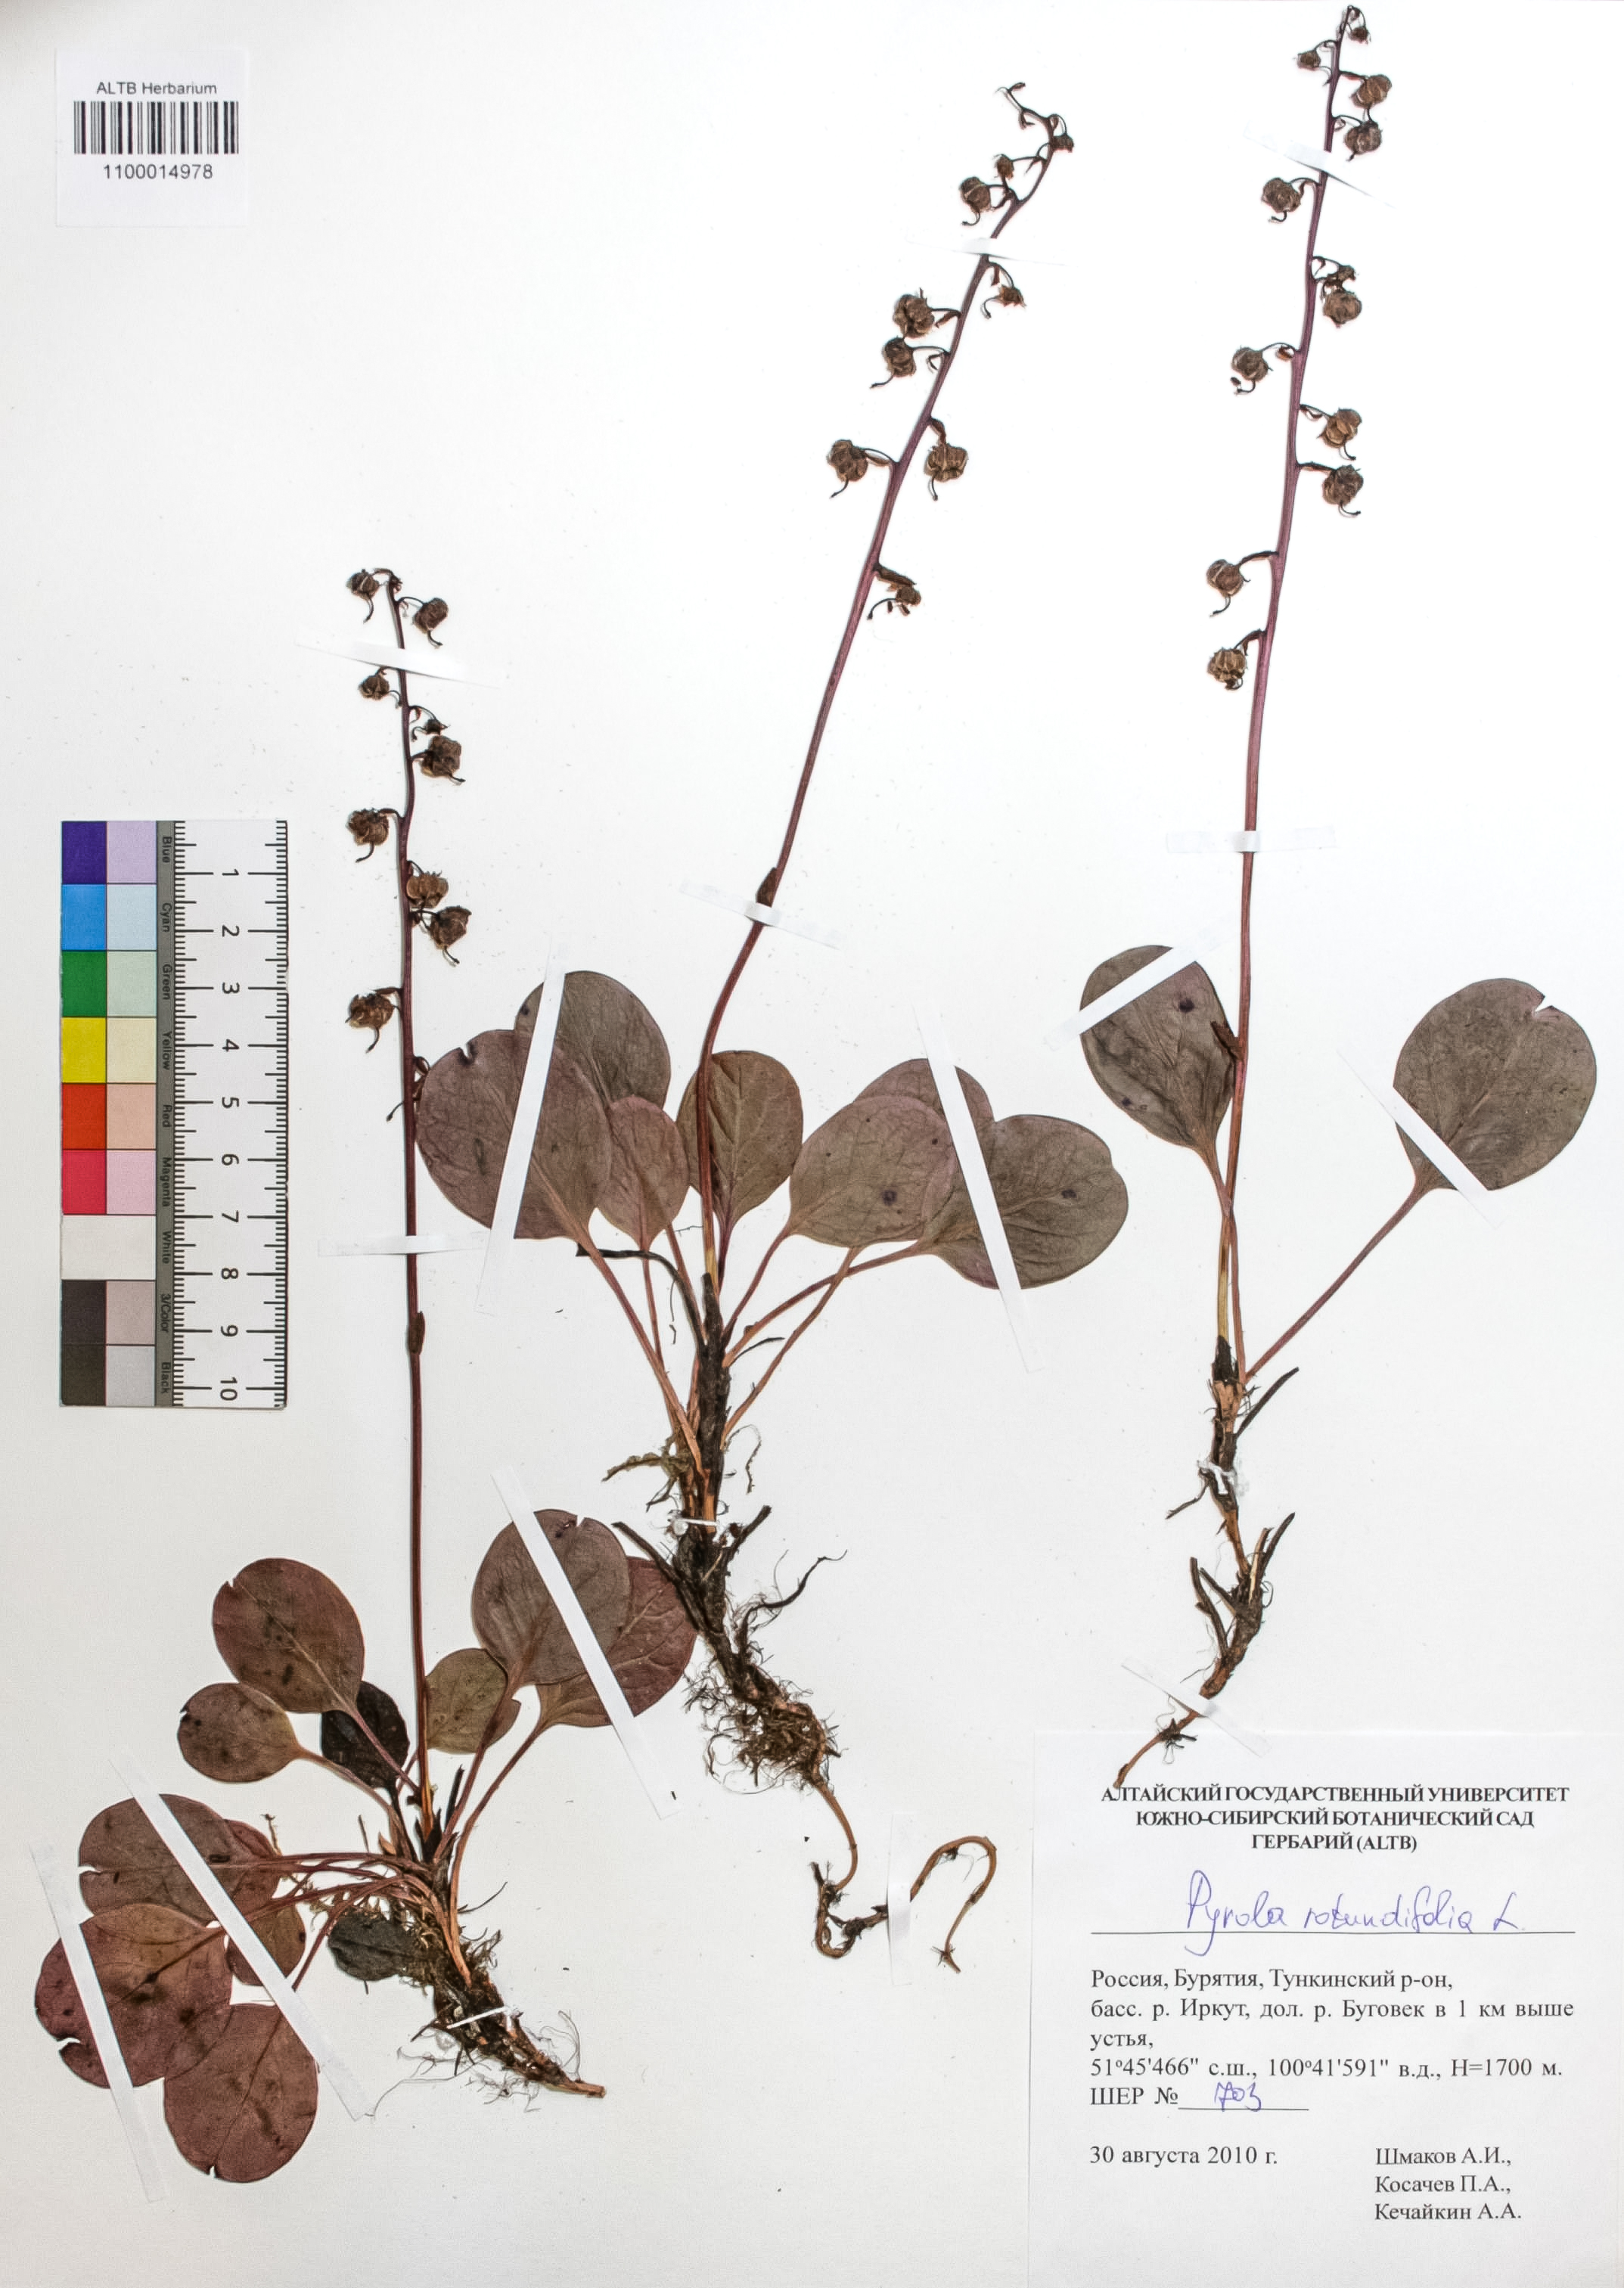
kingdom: Plantae
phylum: Tracheophyta
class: Magnoliopsida
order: Ericales
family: Ericaceae
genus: Pyrola
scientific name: Pyrola rotundifolia
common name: Round-leaved wintergreen
